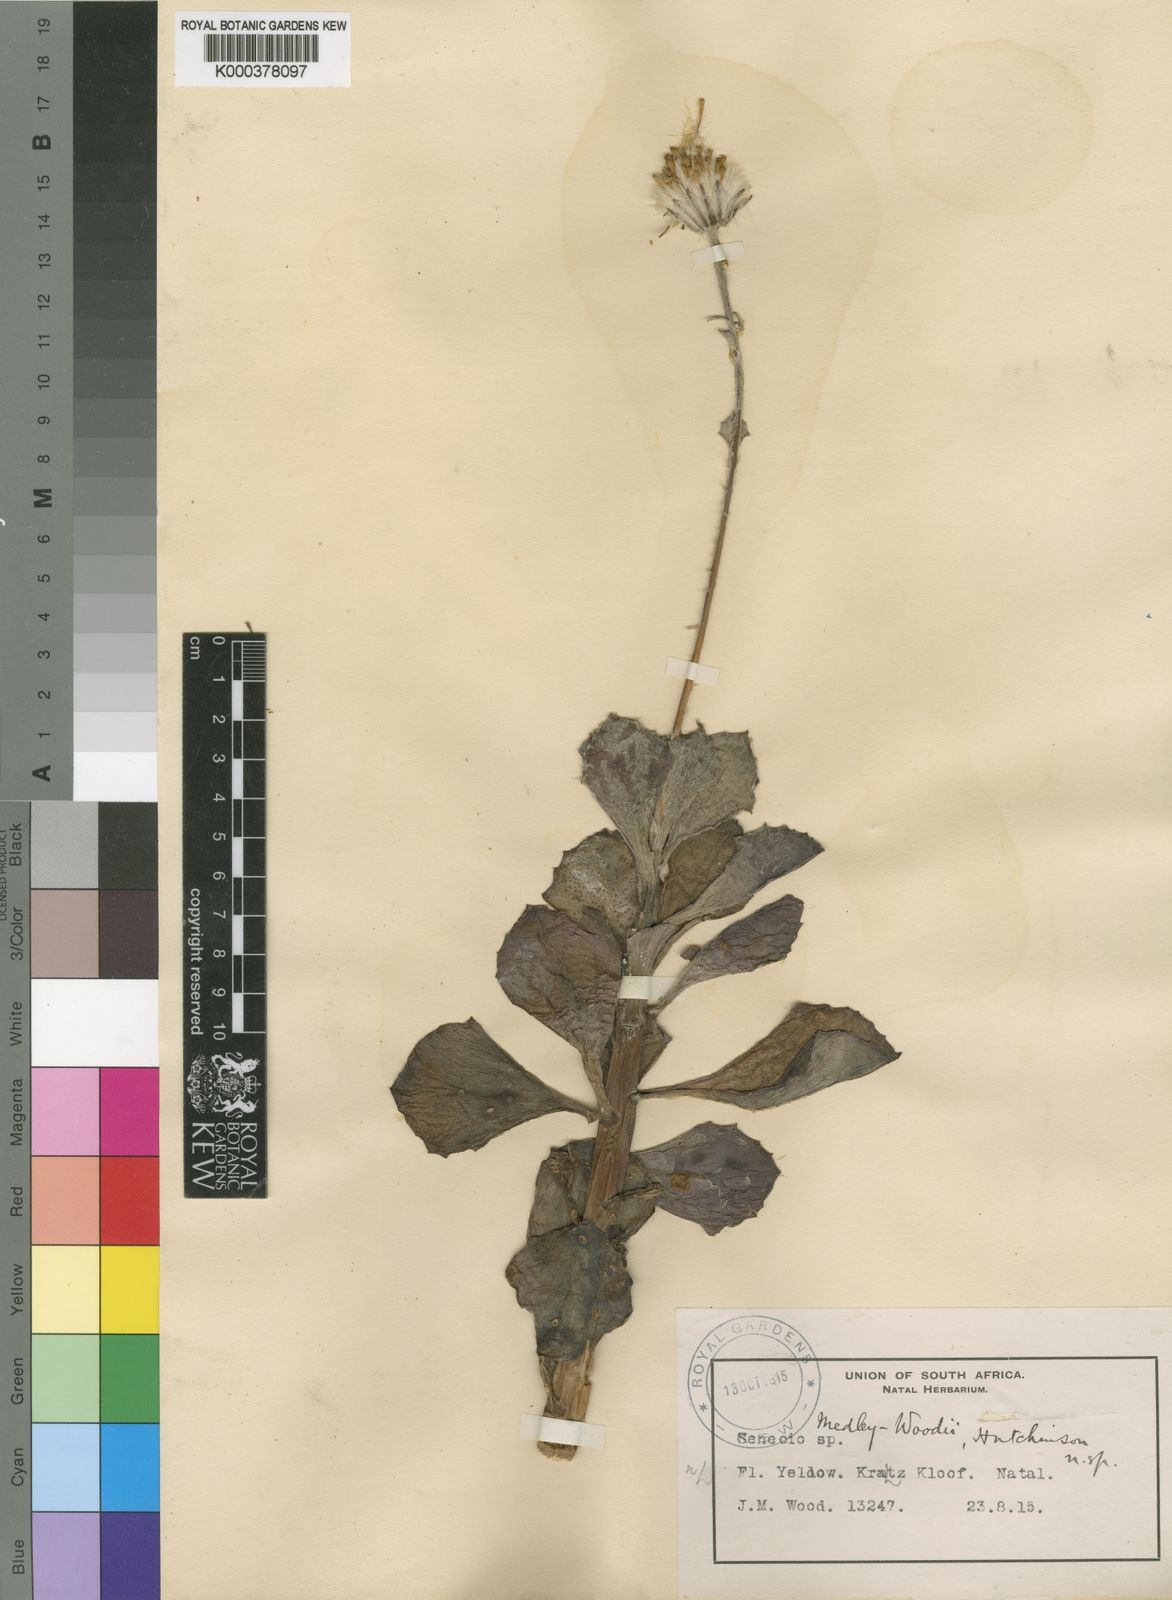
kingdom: Plantae
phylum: Tracheophyta
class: Magnoliopsida
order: Asterales
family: Asteraceae
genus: Caputia
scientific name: Caputia medley-woodii
